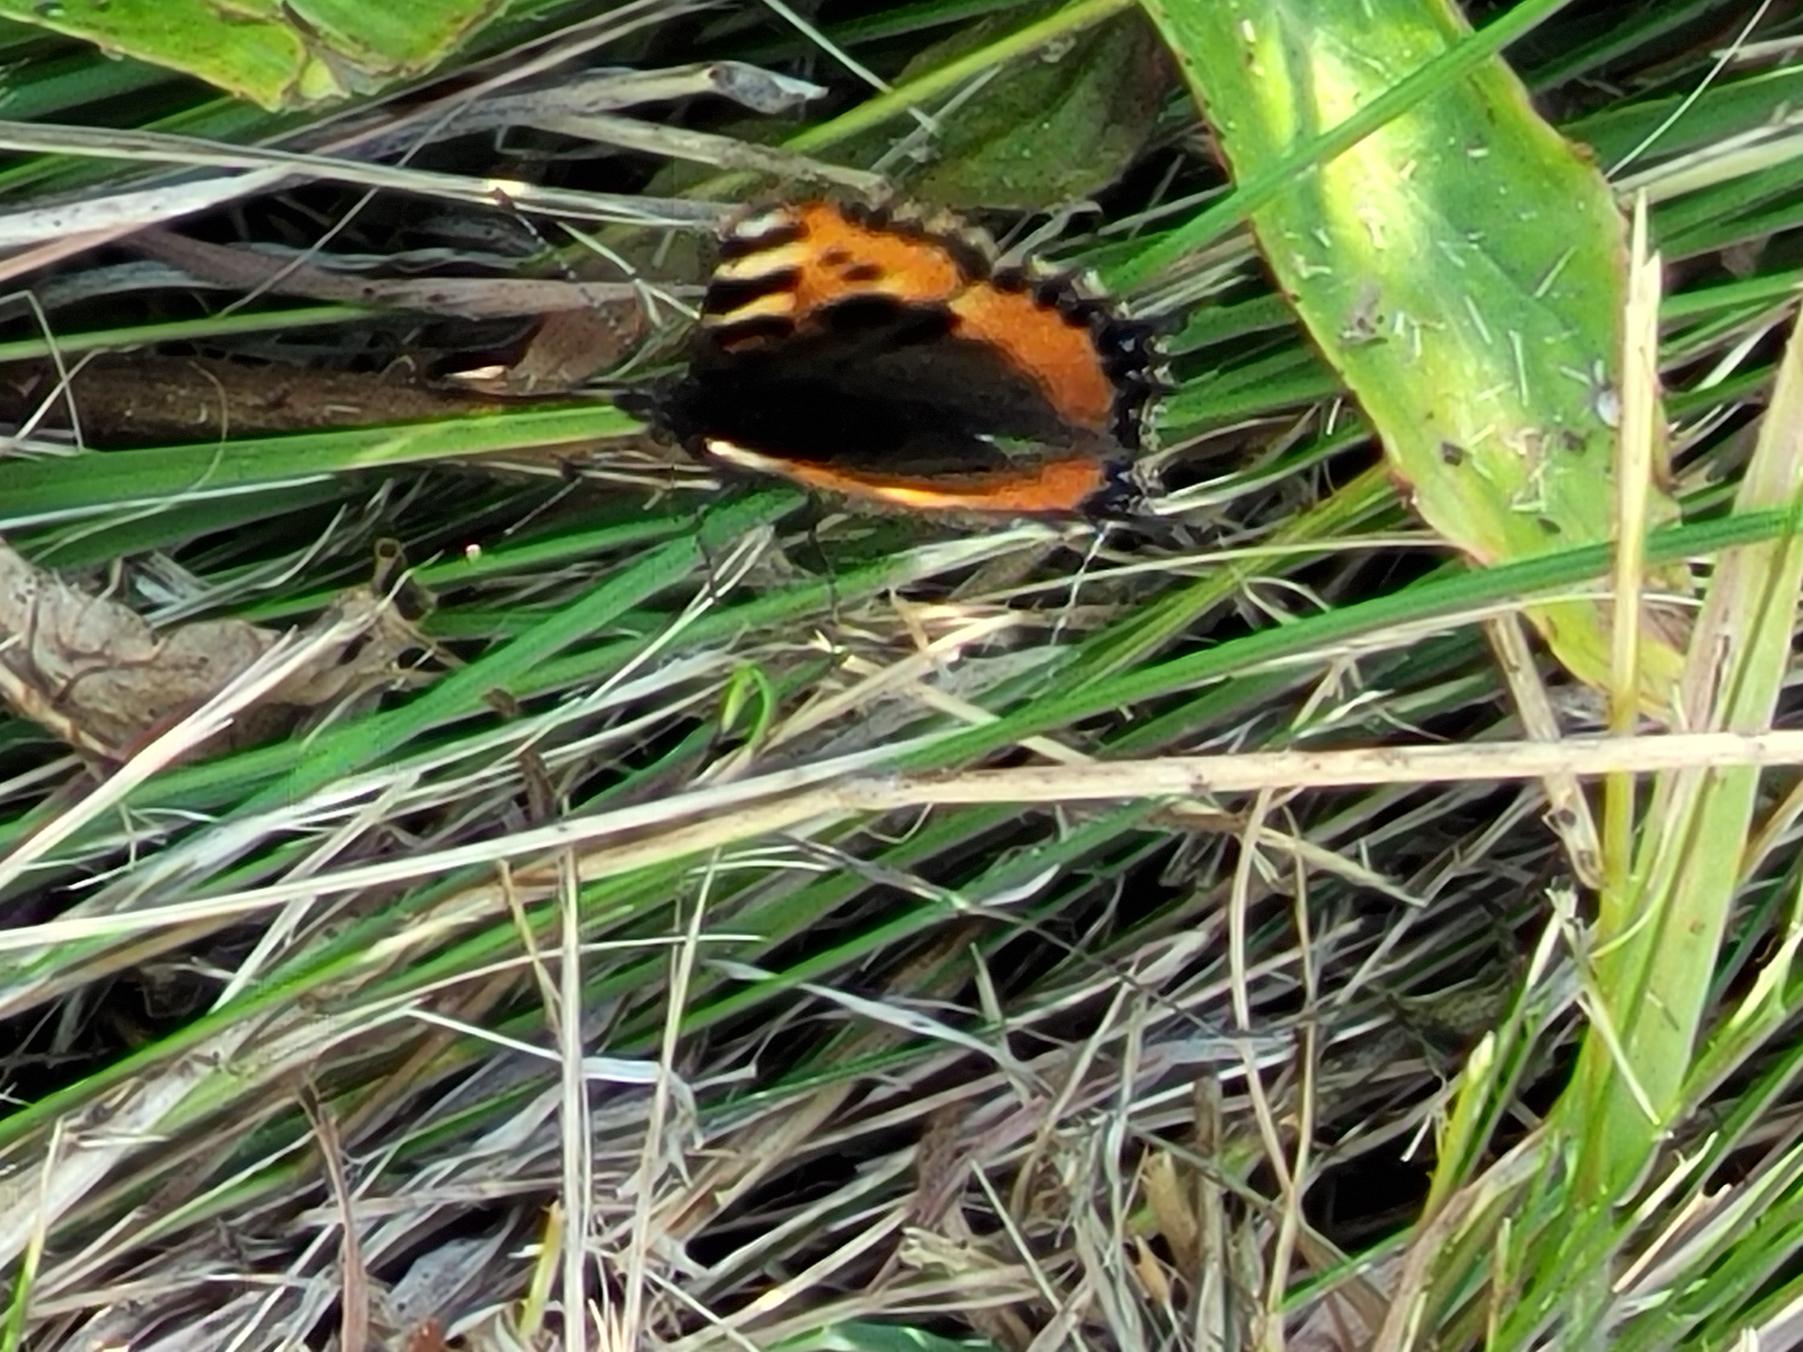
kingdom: Animalia
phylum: Arthropoda
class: Insecta
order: Lepidoptera
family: Nymphalidae
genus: Aglais
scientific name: Aglais urticae
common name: Nældens takvinge
